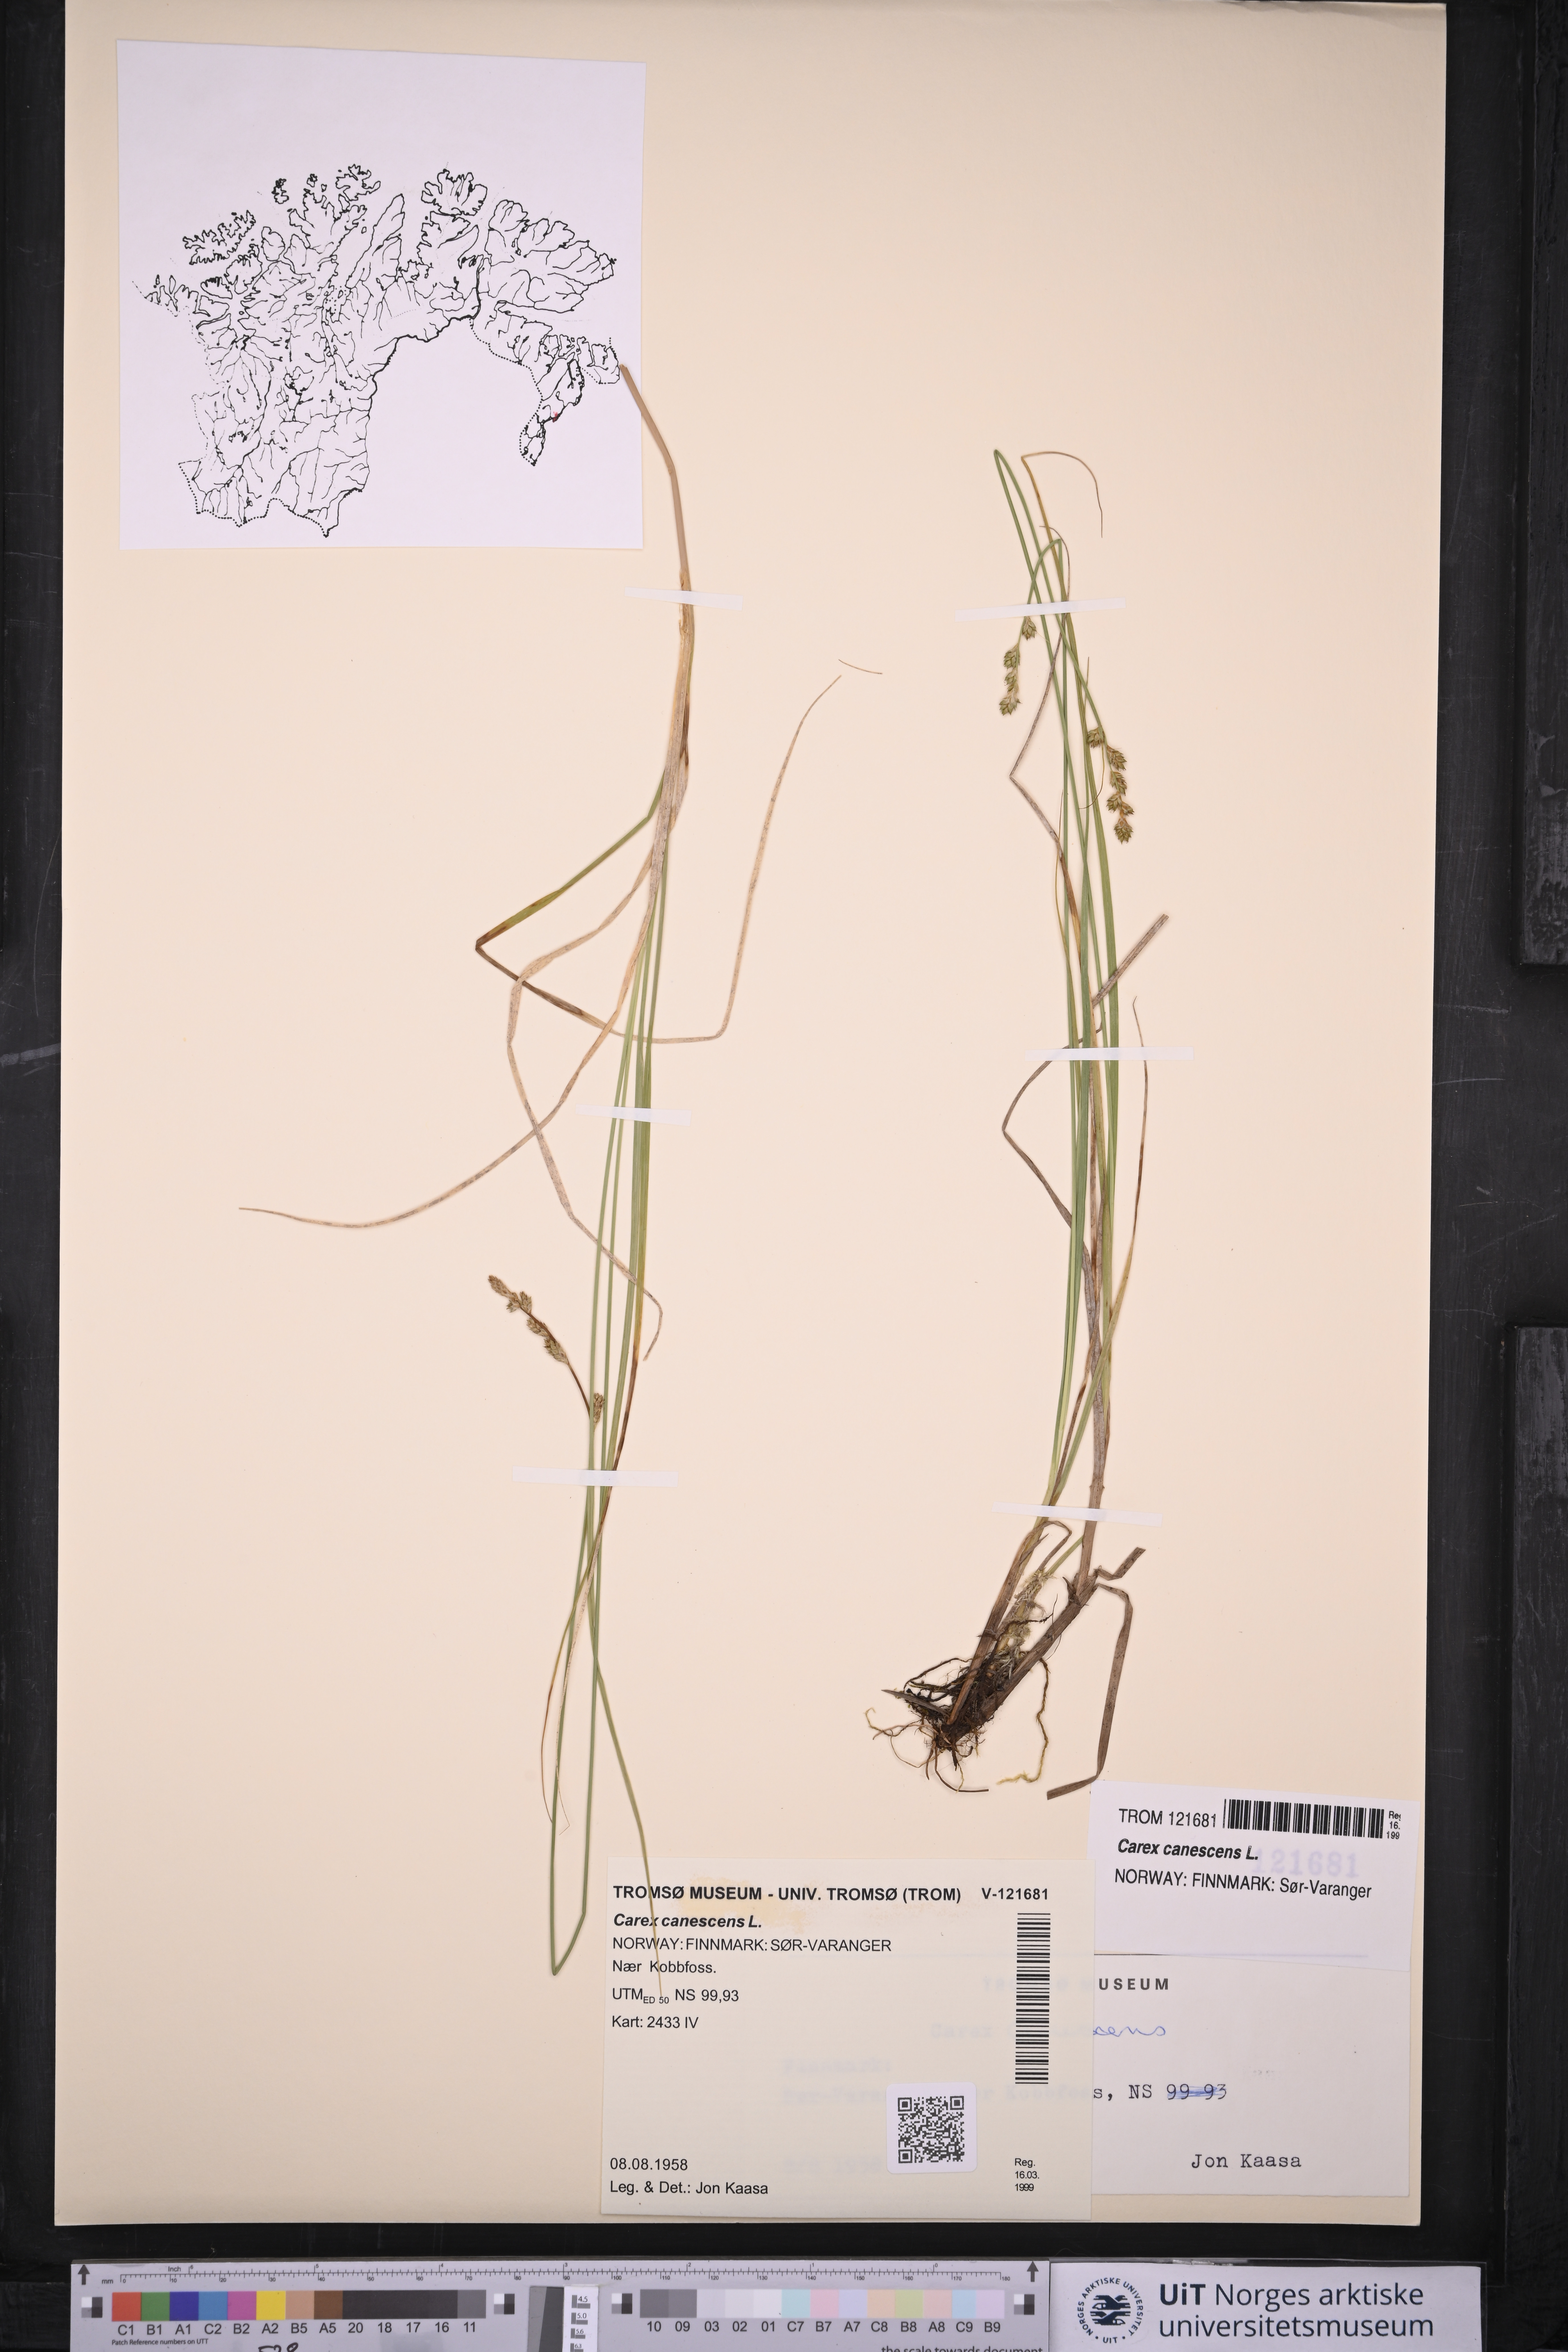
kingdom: Plantae
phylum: Tracheophyta
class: Liliopsida
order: Poales
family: Cyperaceae
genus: Carex
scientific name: Carex canescens
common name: White sedge
